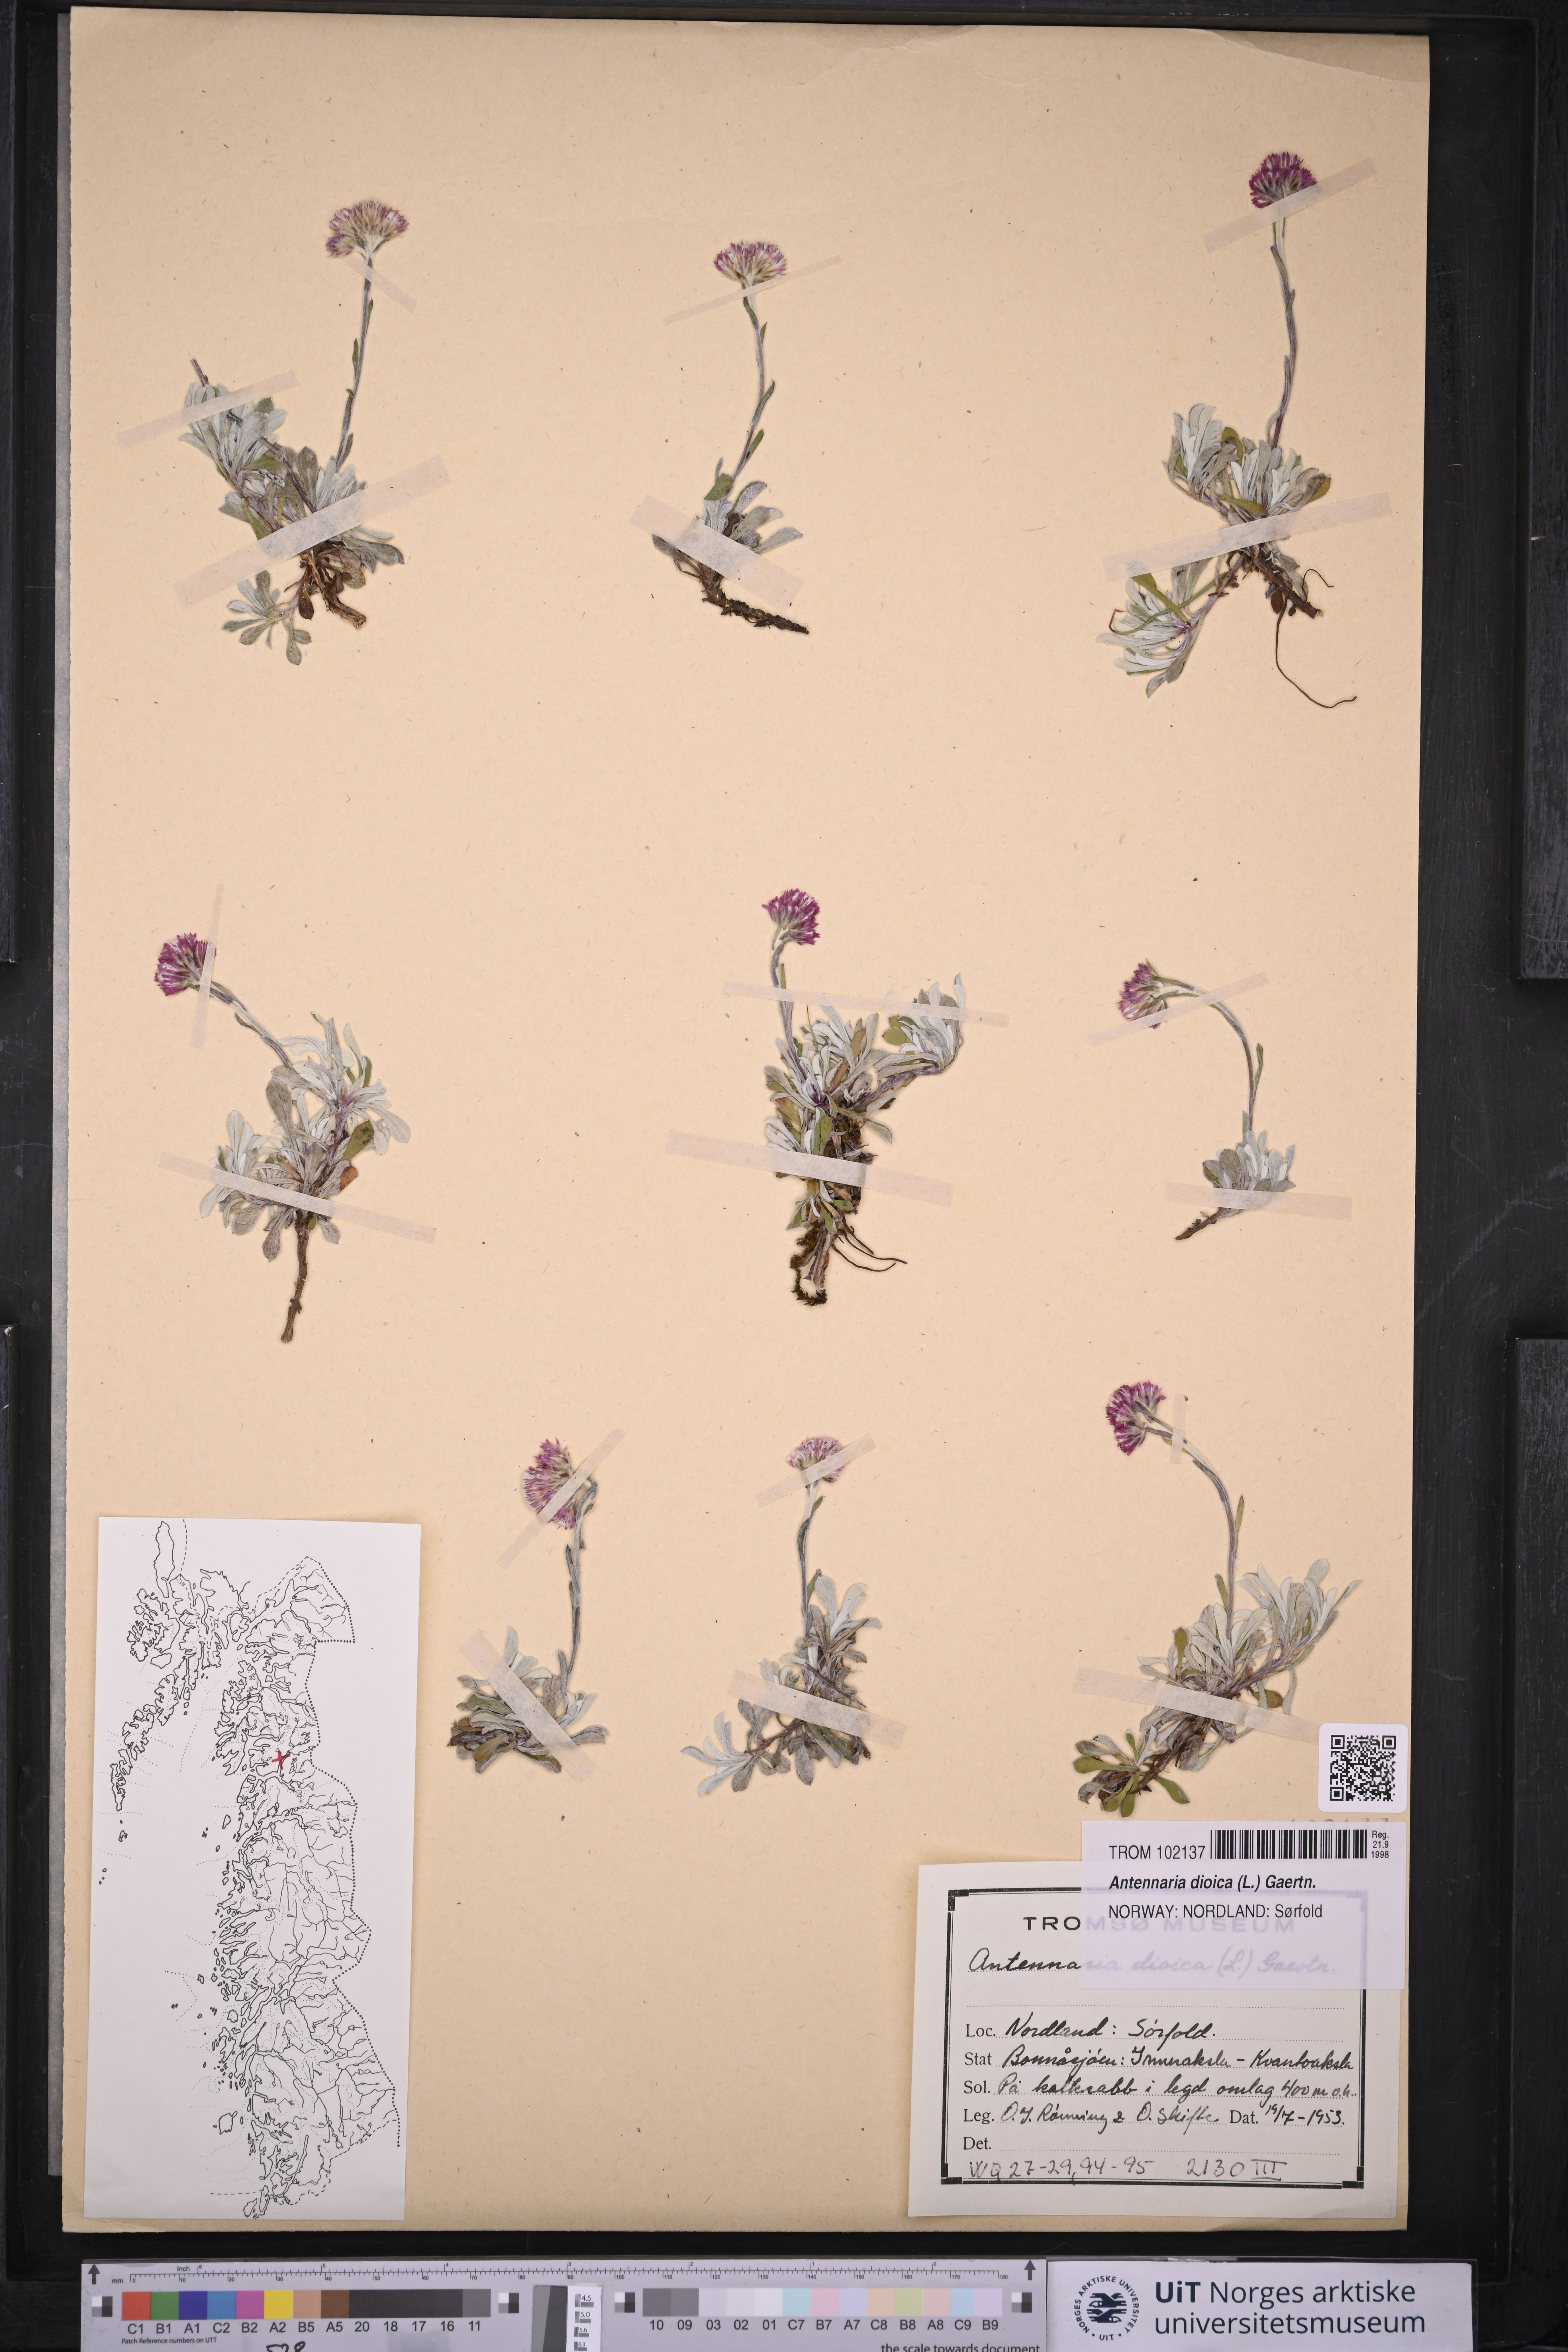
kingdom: Plantae
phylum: Tracheophyta
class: Magnoliopsida
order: Asterales
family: Asteraceae
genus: Antennaria
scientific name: Antennaria dioica
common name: Mountain everlasting
